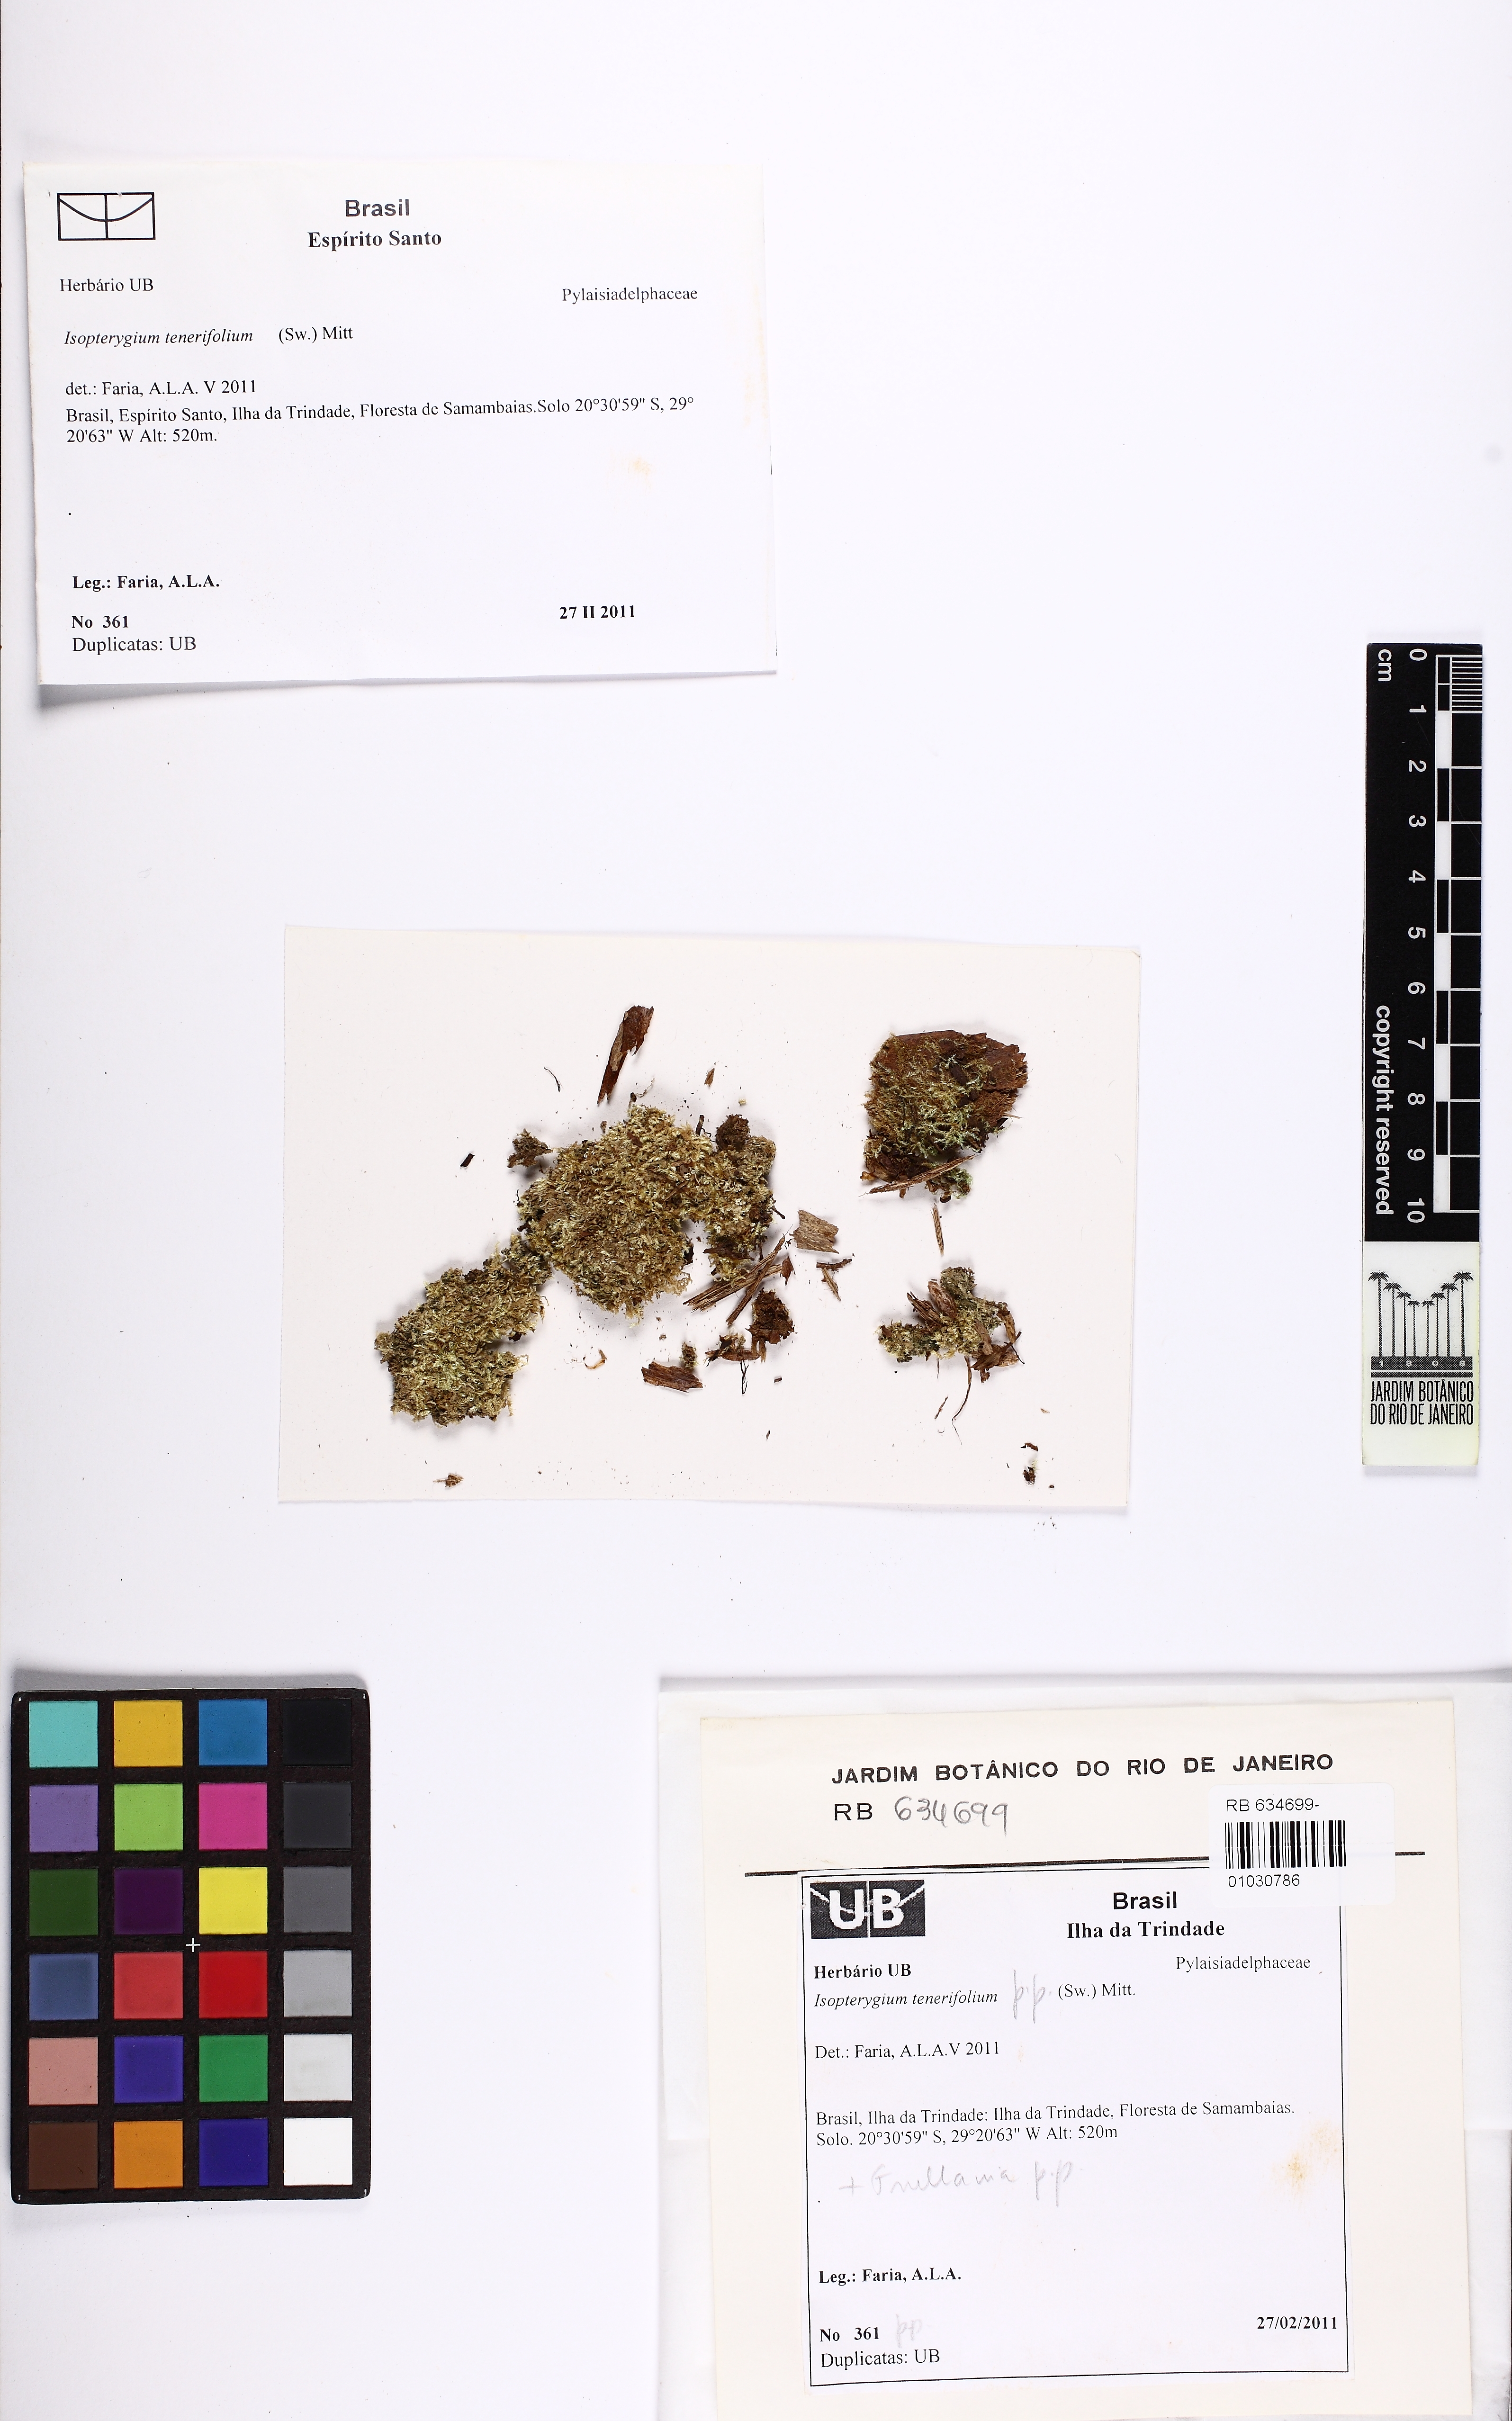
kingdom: Plantae
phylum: Bryophyta
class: Bryopsida
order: Hypnales
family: Pylaisiadelphaceae
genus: Isopterygium
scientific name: Isopterygium tenerifolium
